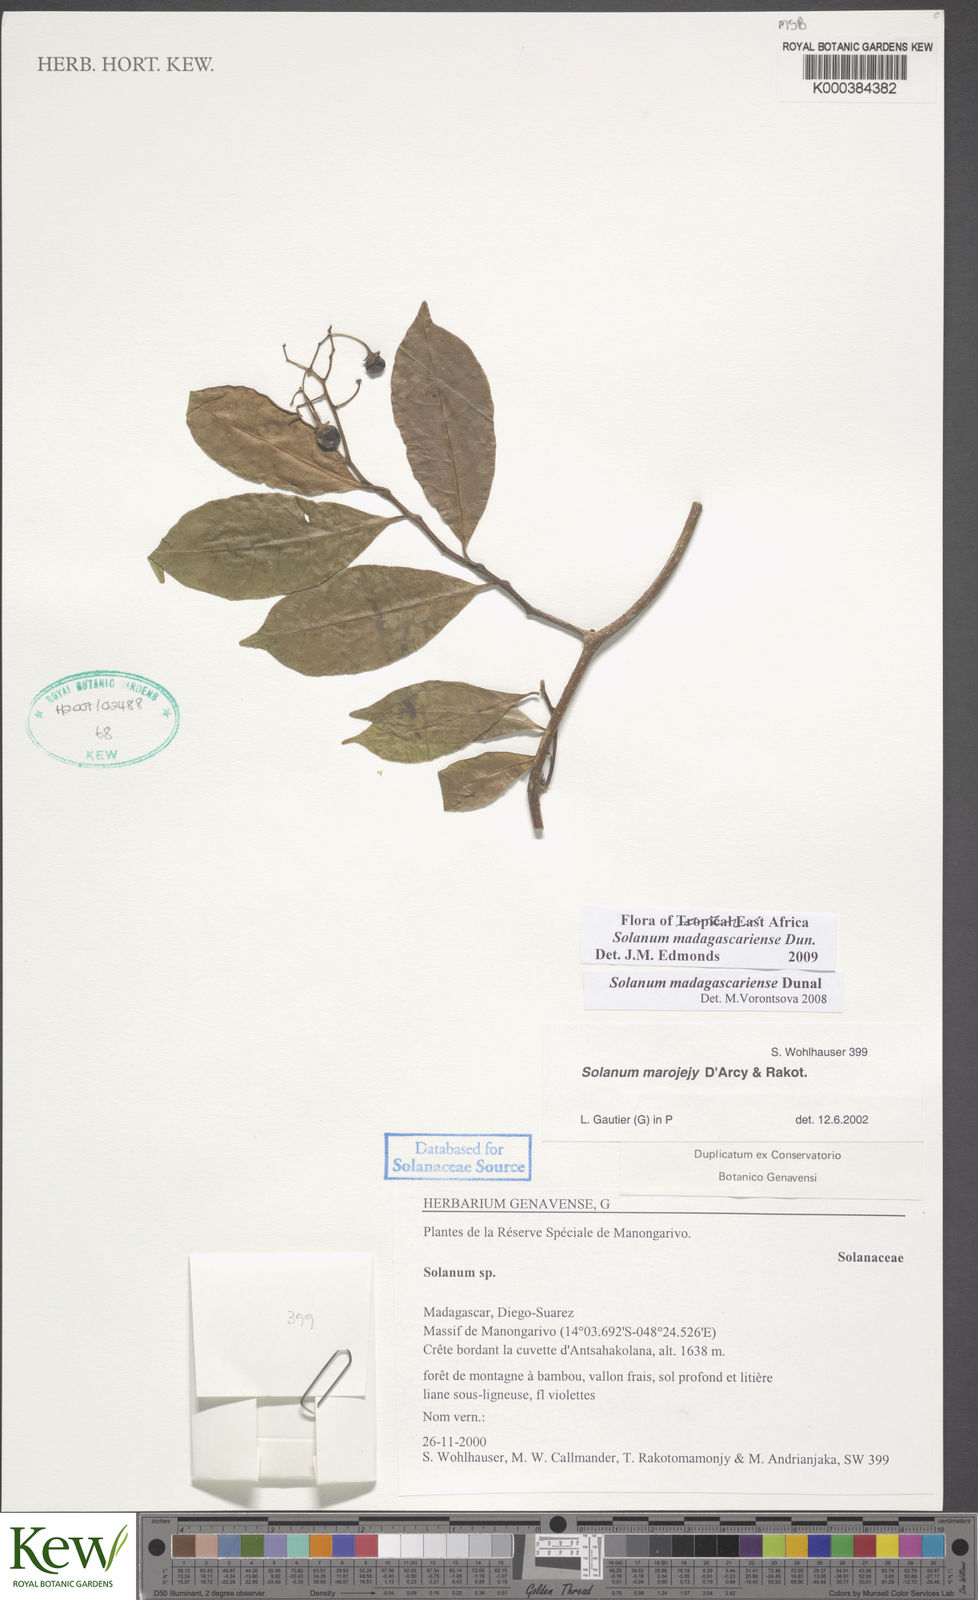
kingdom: Plantae
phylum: Tracheophyta
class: Magnoliopsida
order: Solanales
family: Solanaceae
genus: Solanum
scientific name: Solanum marojejy
